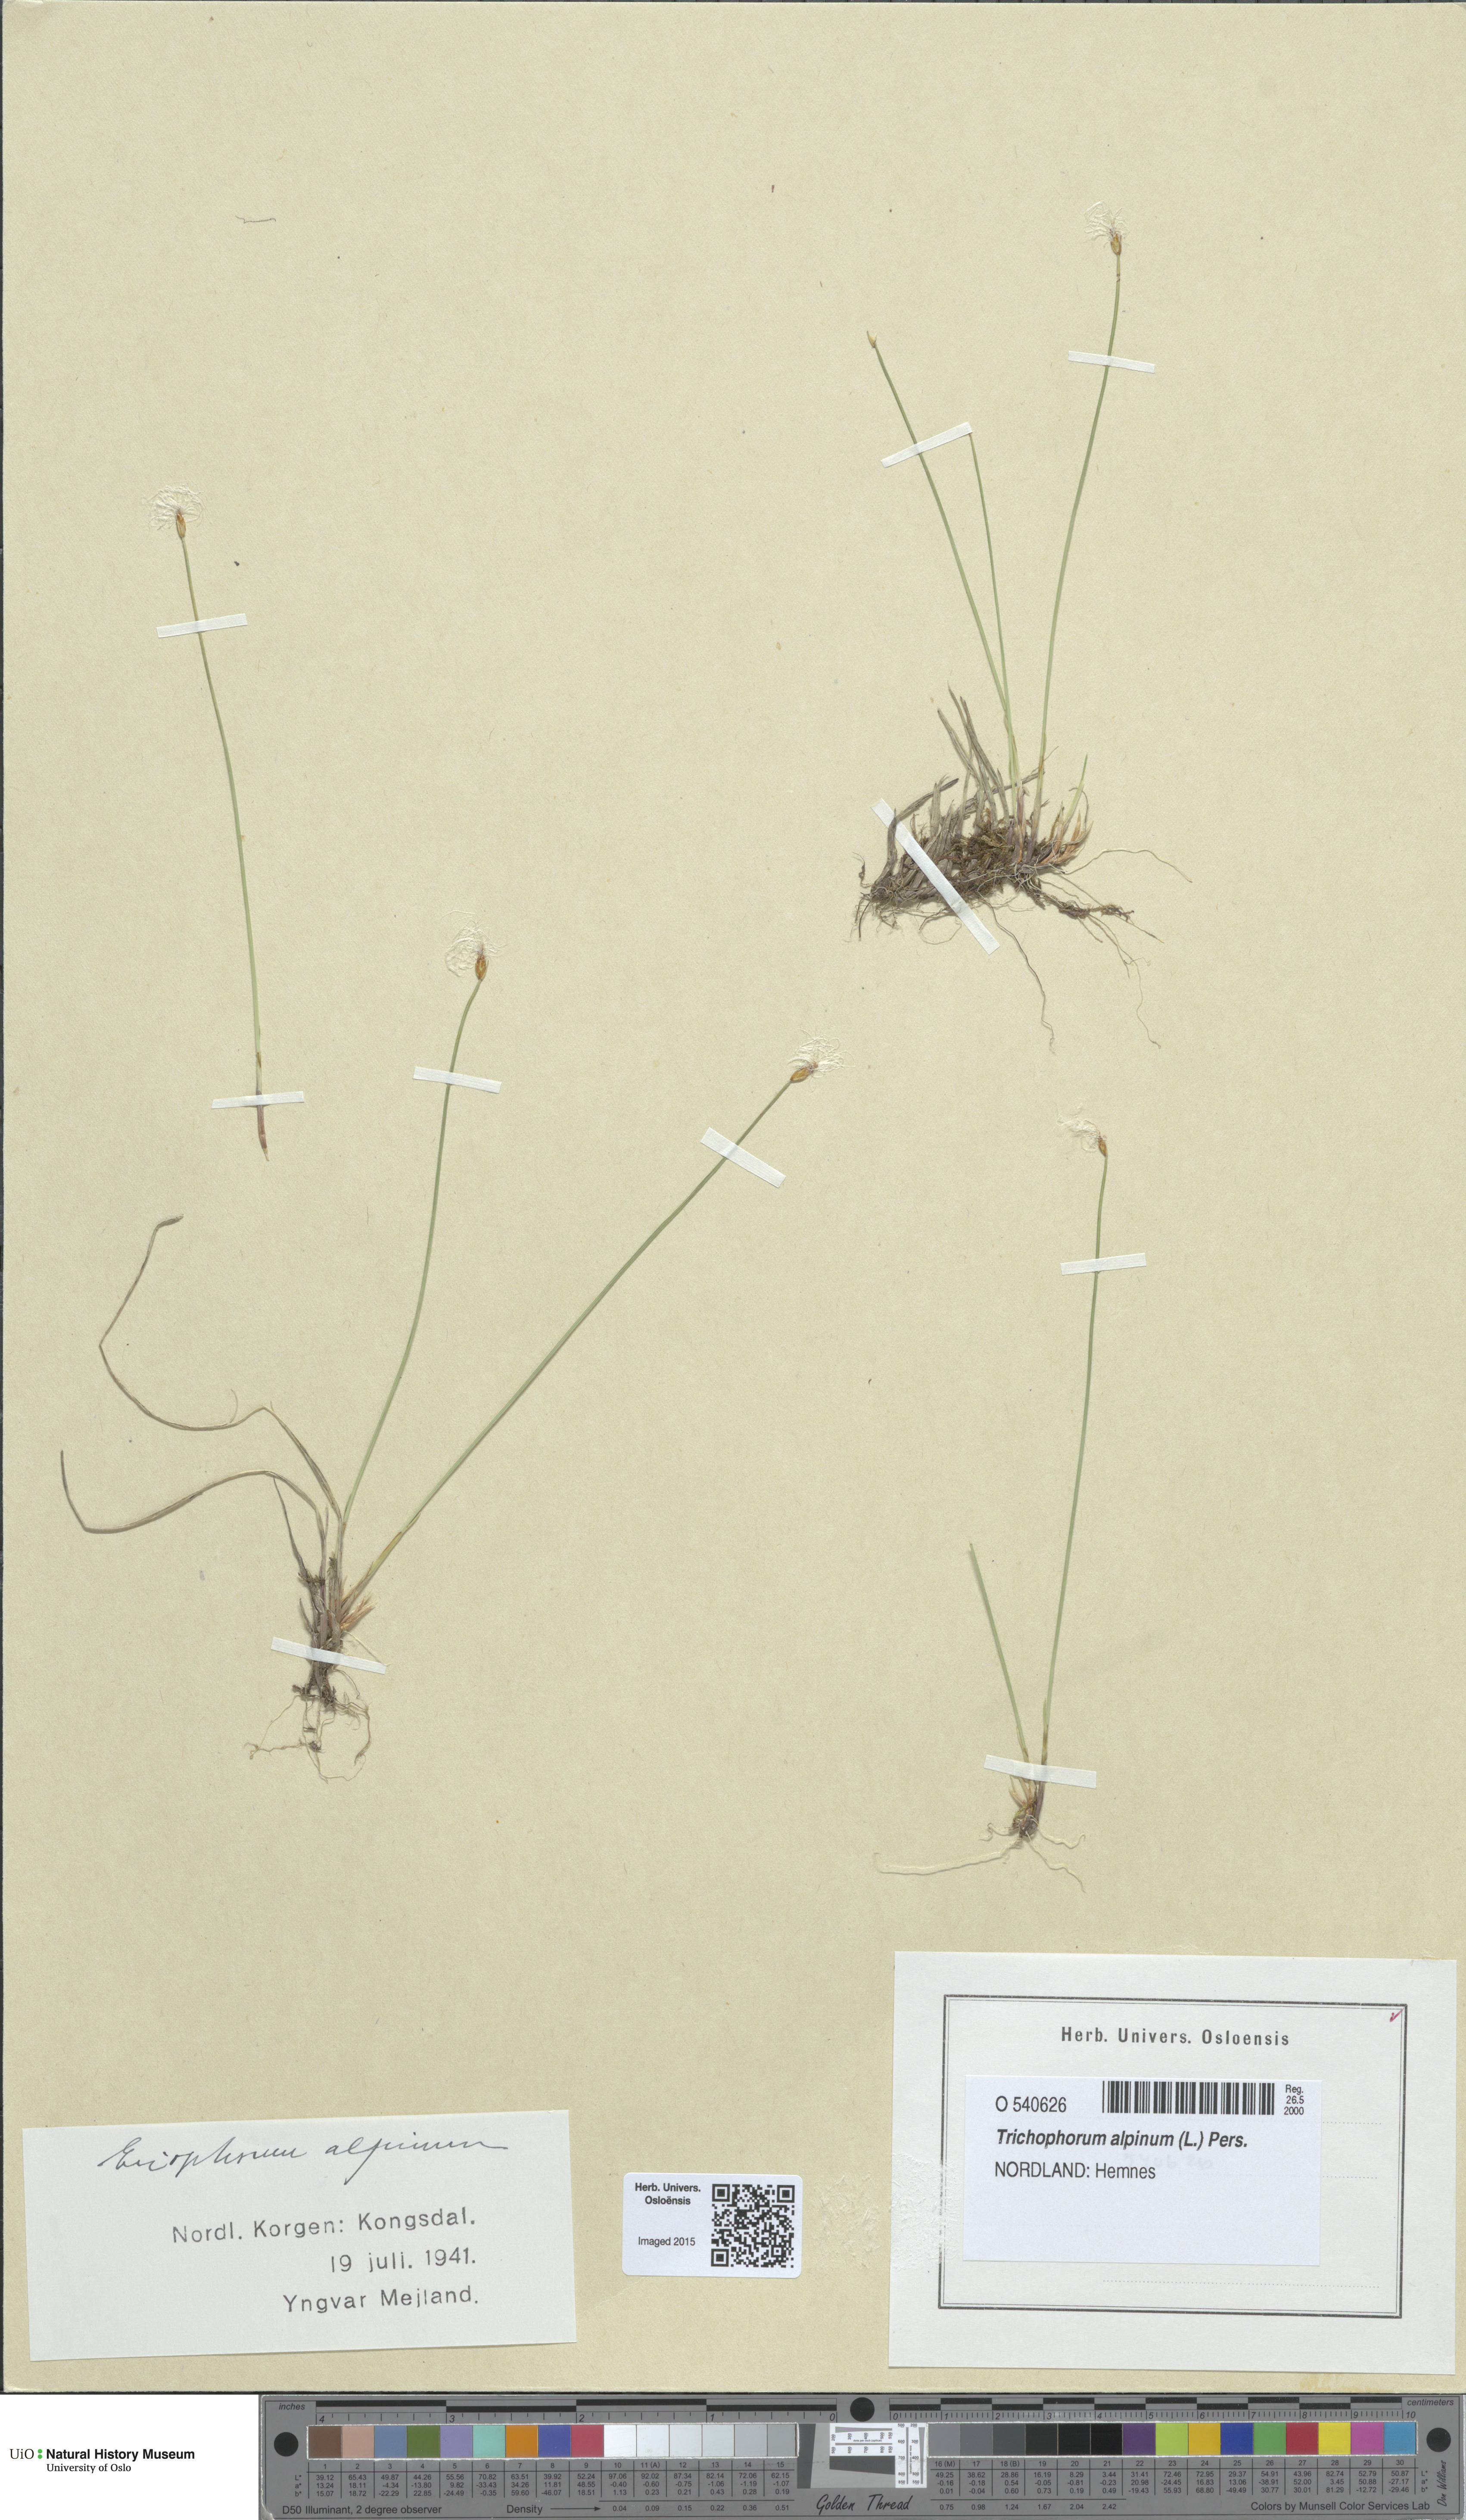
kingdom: Plantae
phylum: Tracheophyta
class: Liliopsida
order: Poales
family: Cyperaceae
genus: Trichophorum
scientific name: Trichophorum alpinum
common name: Alpine bulrush
